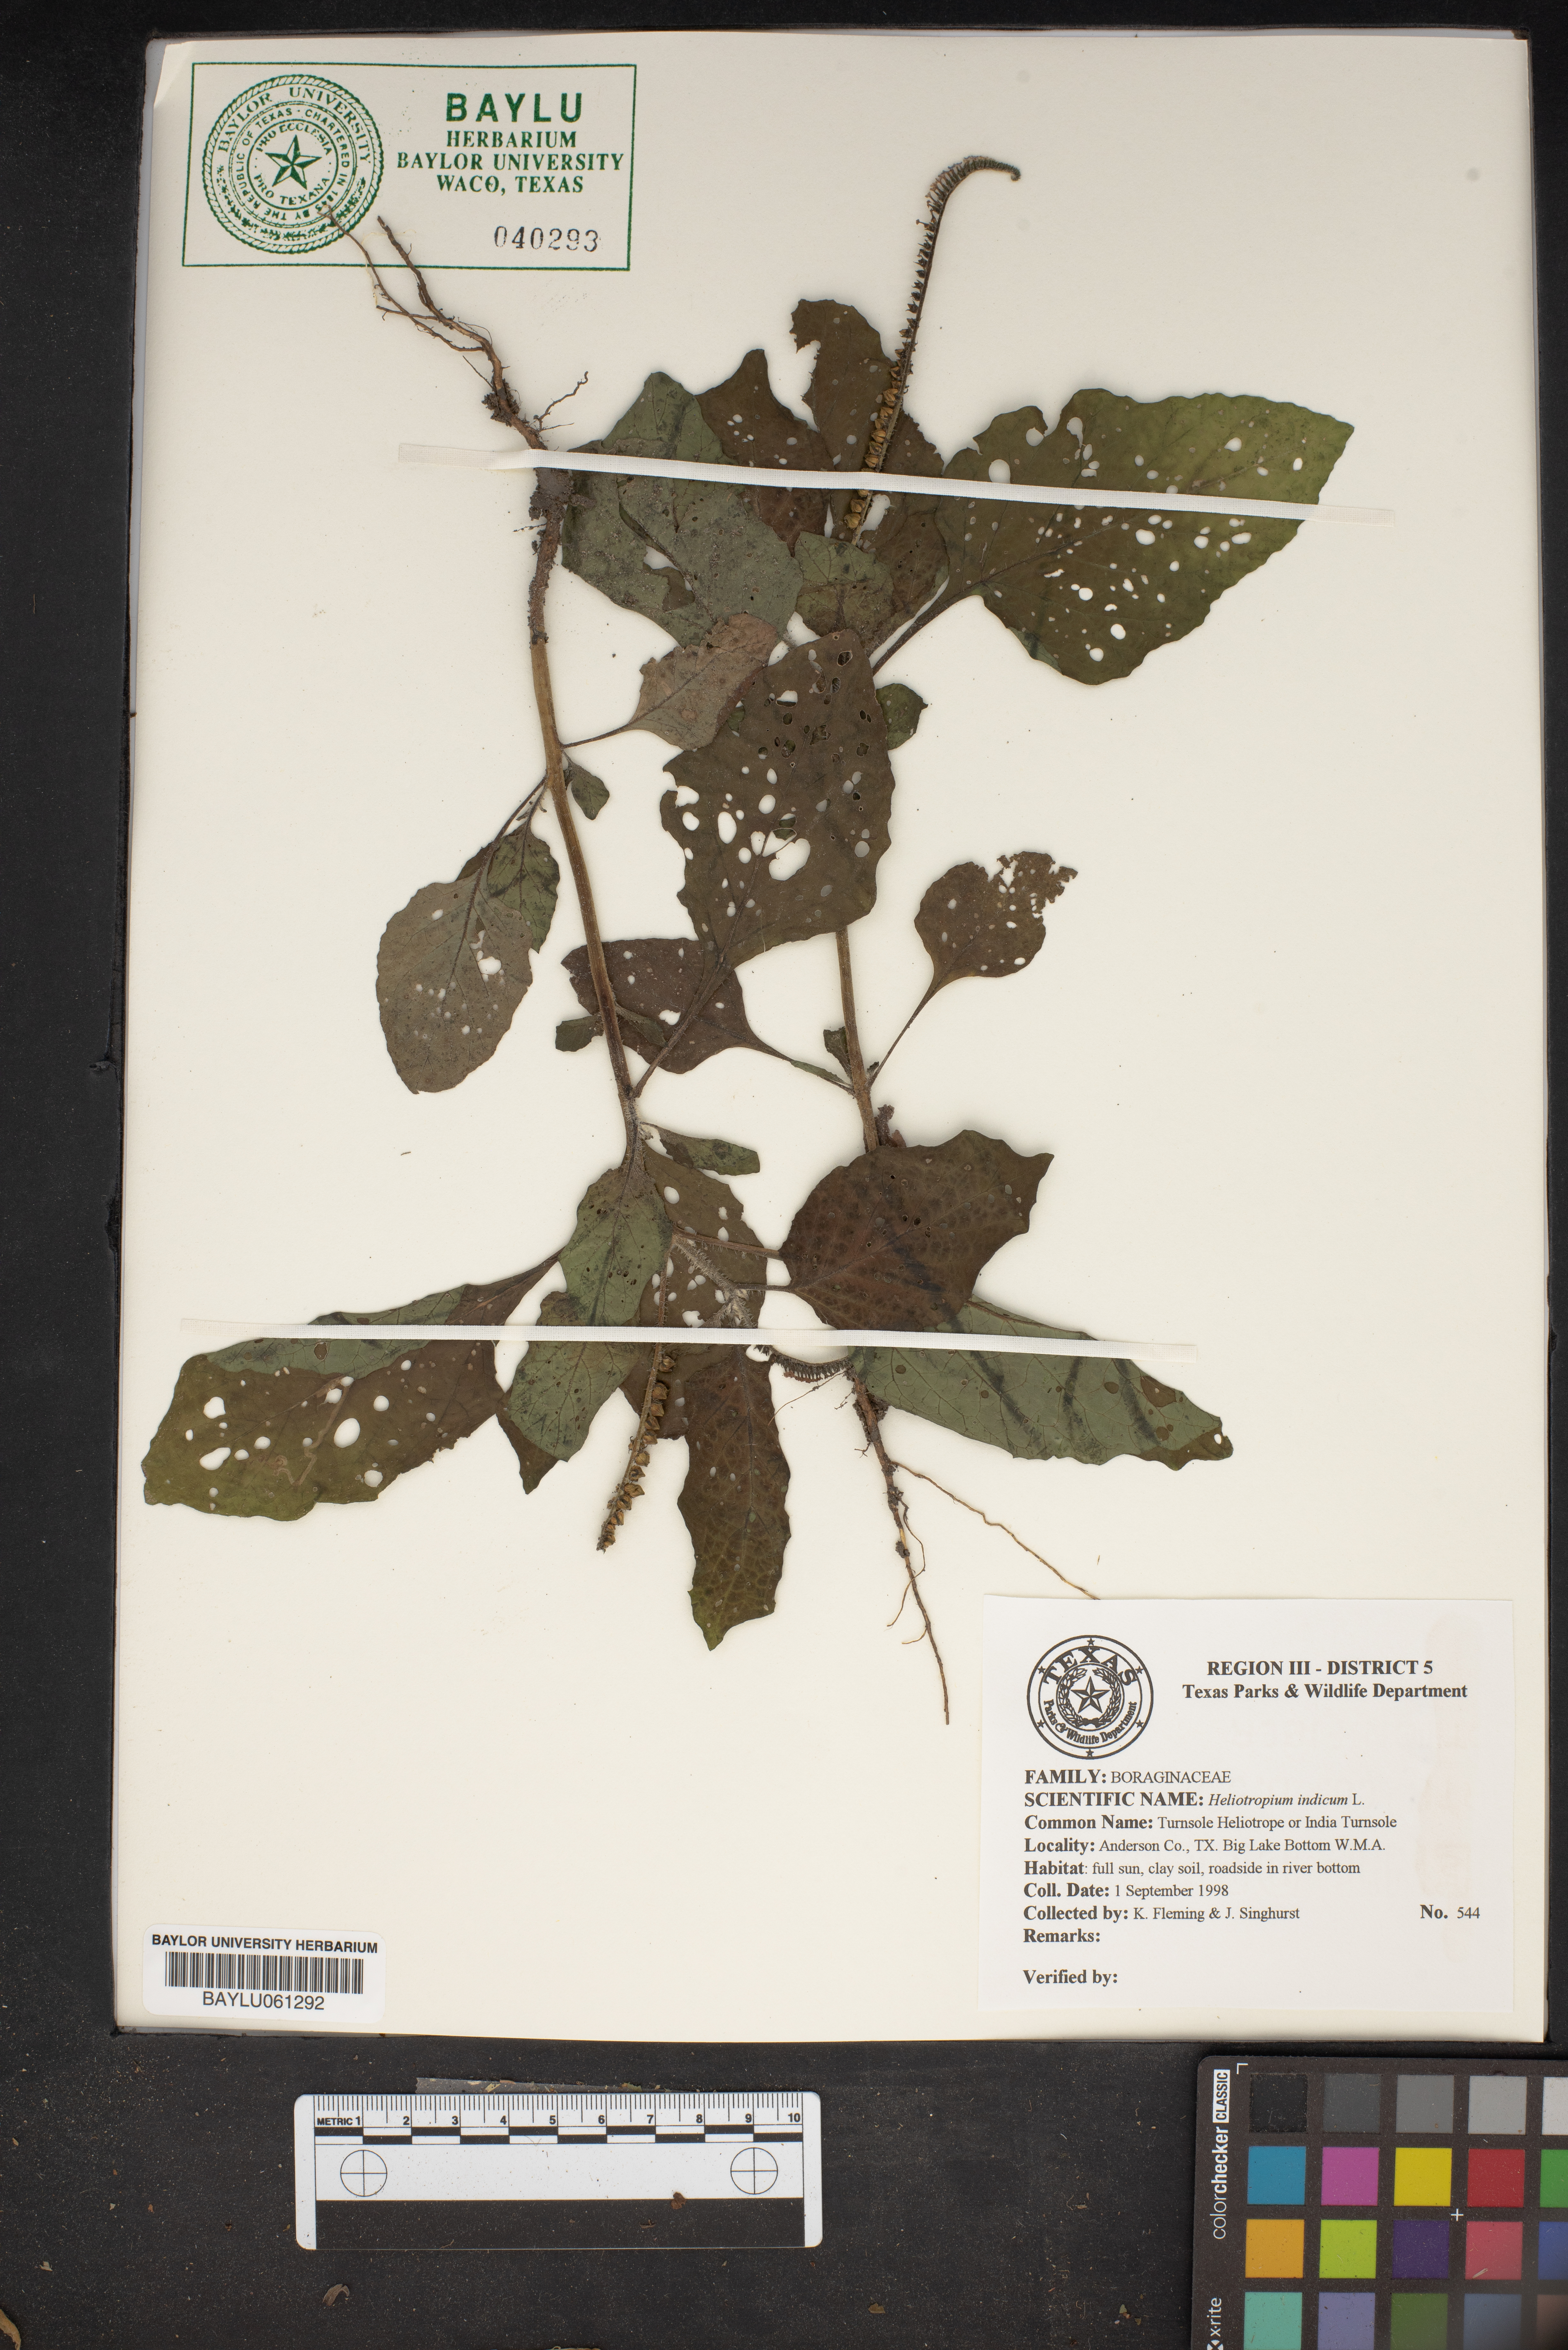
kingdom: Plantae
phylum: Tracheophyta
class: Magnoliopsida
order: Boraginales
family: Heliotropiaceae
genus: Heliotropium
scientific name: Heliotropium indicum
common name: Indian heliotrope
